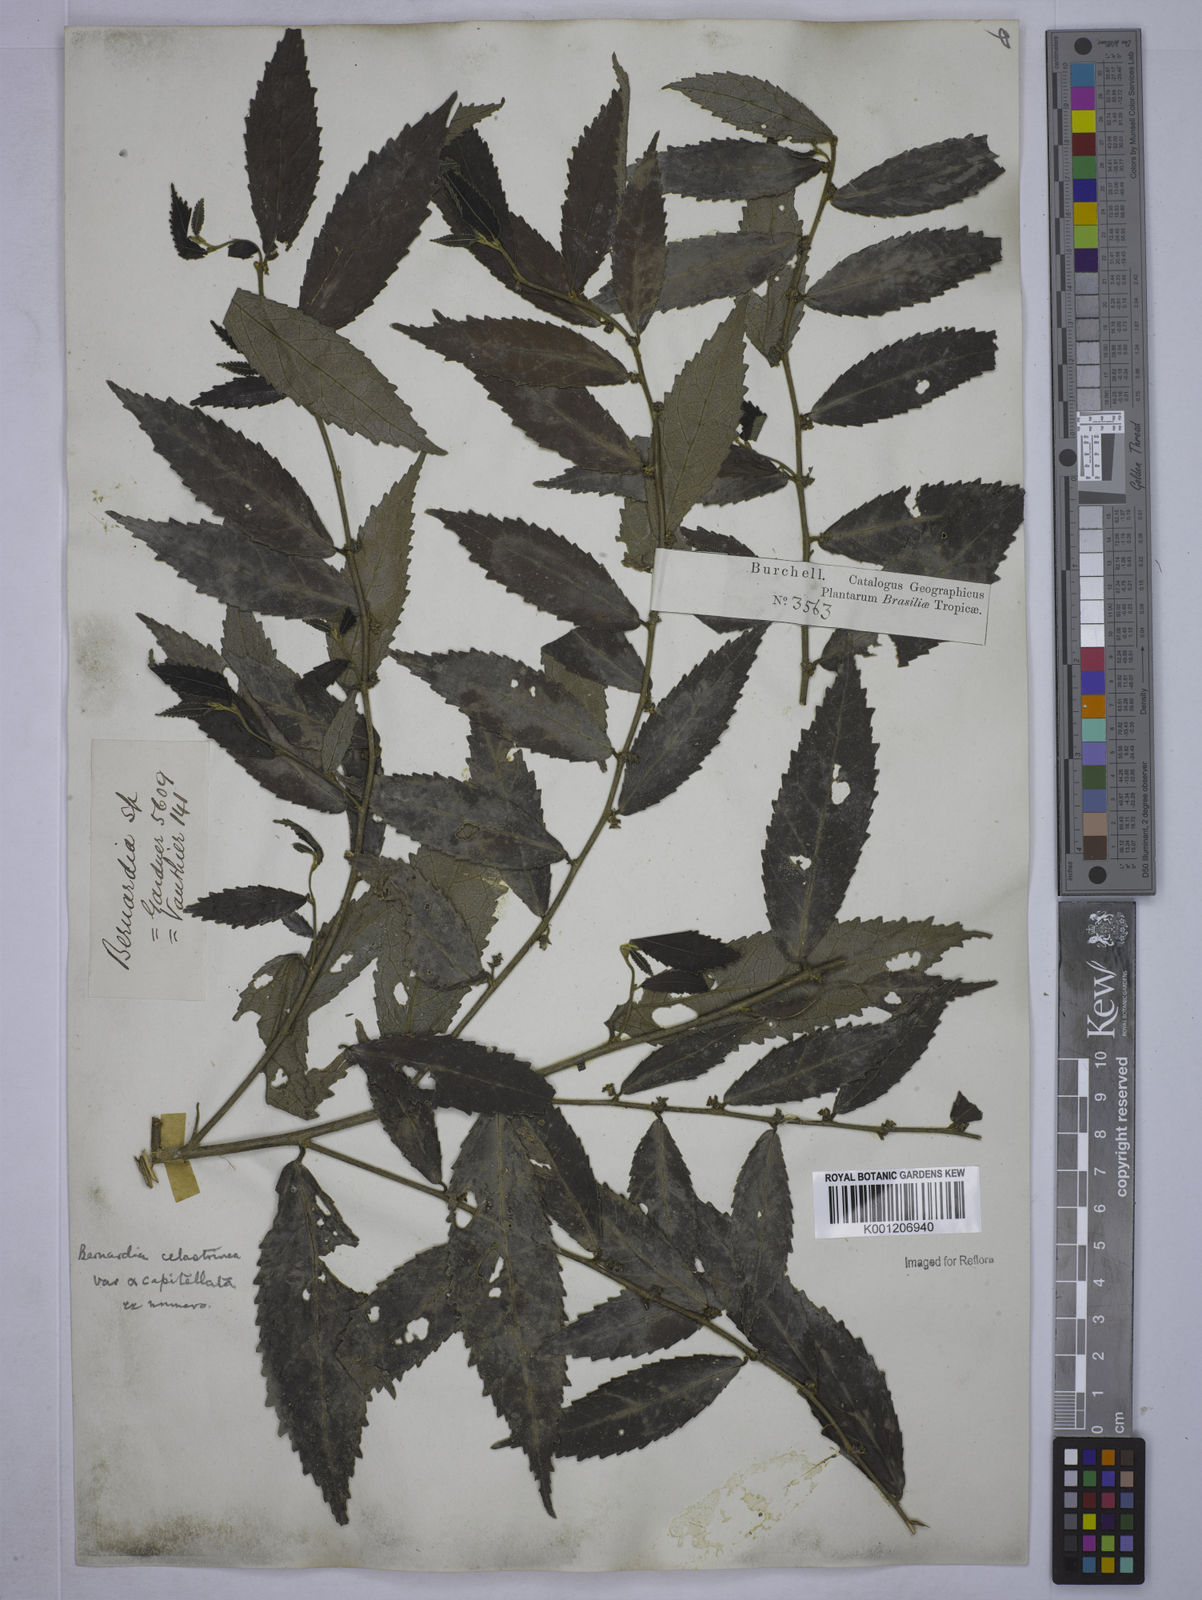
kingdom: Plantae
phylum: Tracheophyta
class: Magnoliopsida
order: Malpighiales
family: Euphorbiaceae
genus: Bernardia
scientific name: Bernardia celastrinea
